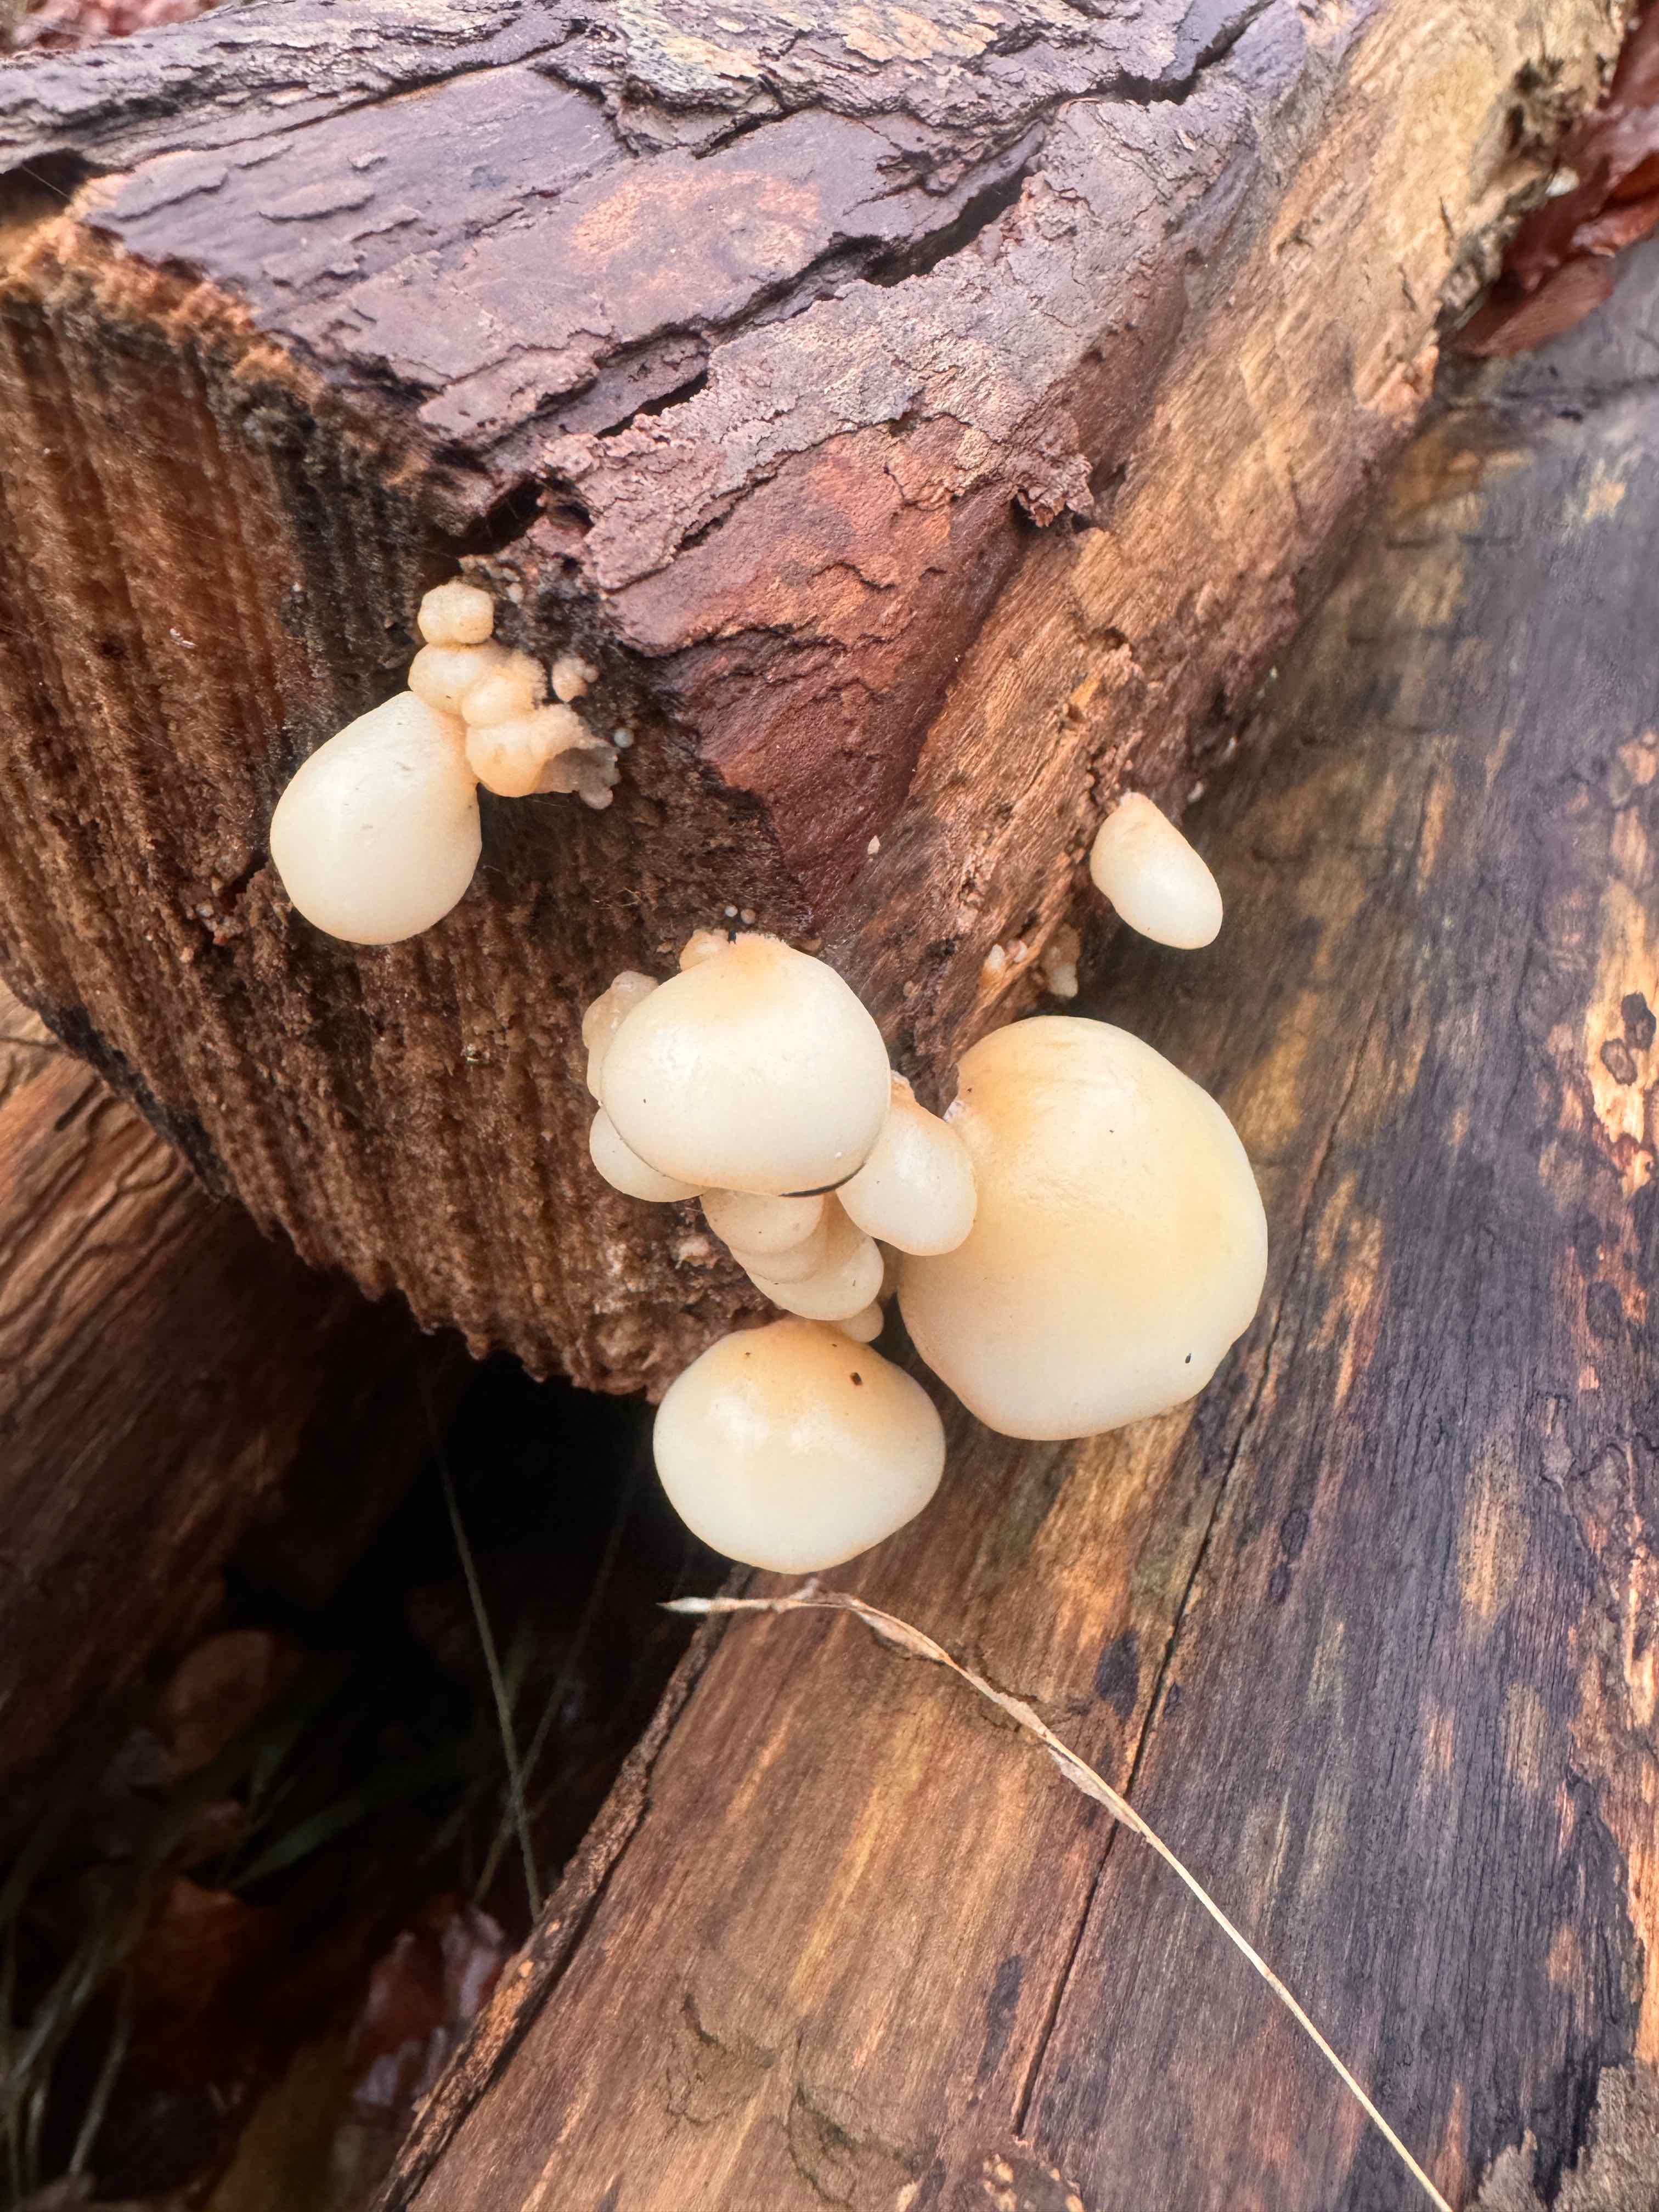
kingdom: Fungi
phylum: Basidiomycota
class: Agaricomycetes
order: Agaricales
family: Crepidotaceae
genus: Crepidotus
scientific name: Crepidotus mollis
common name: blød muslingesvamp
